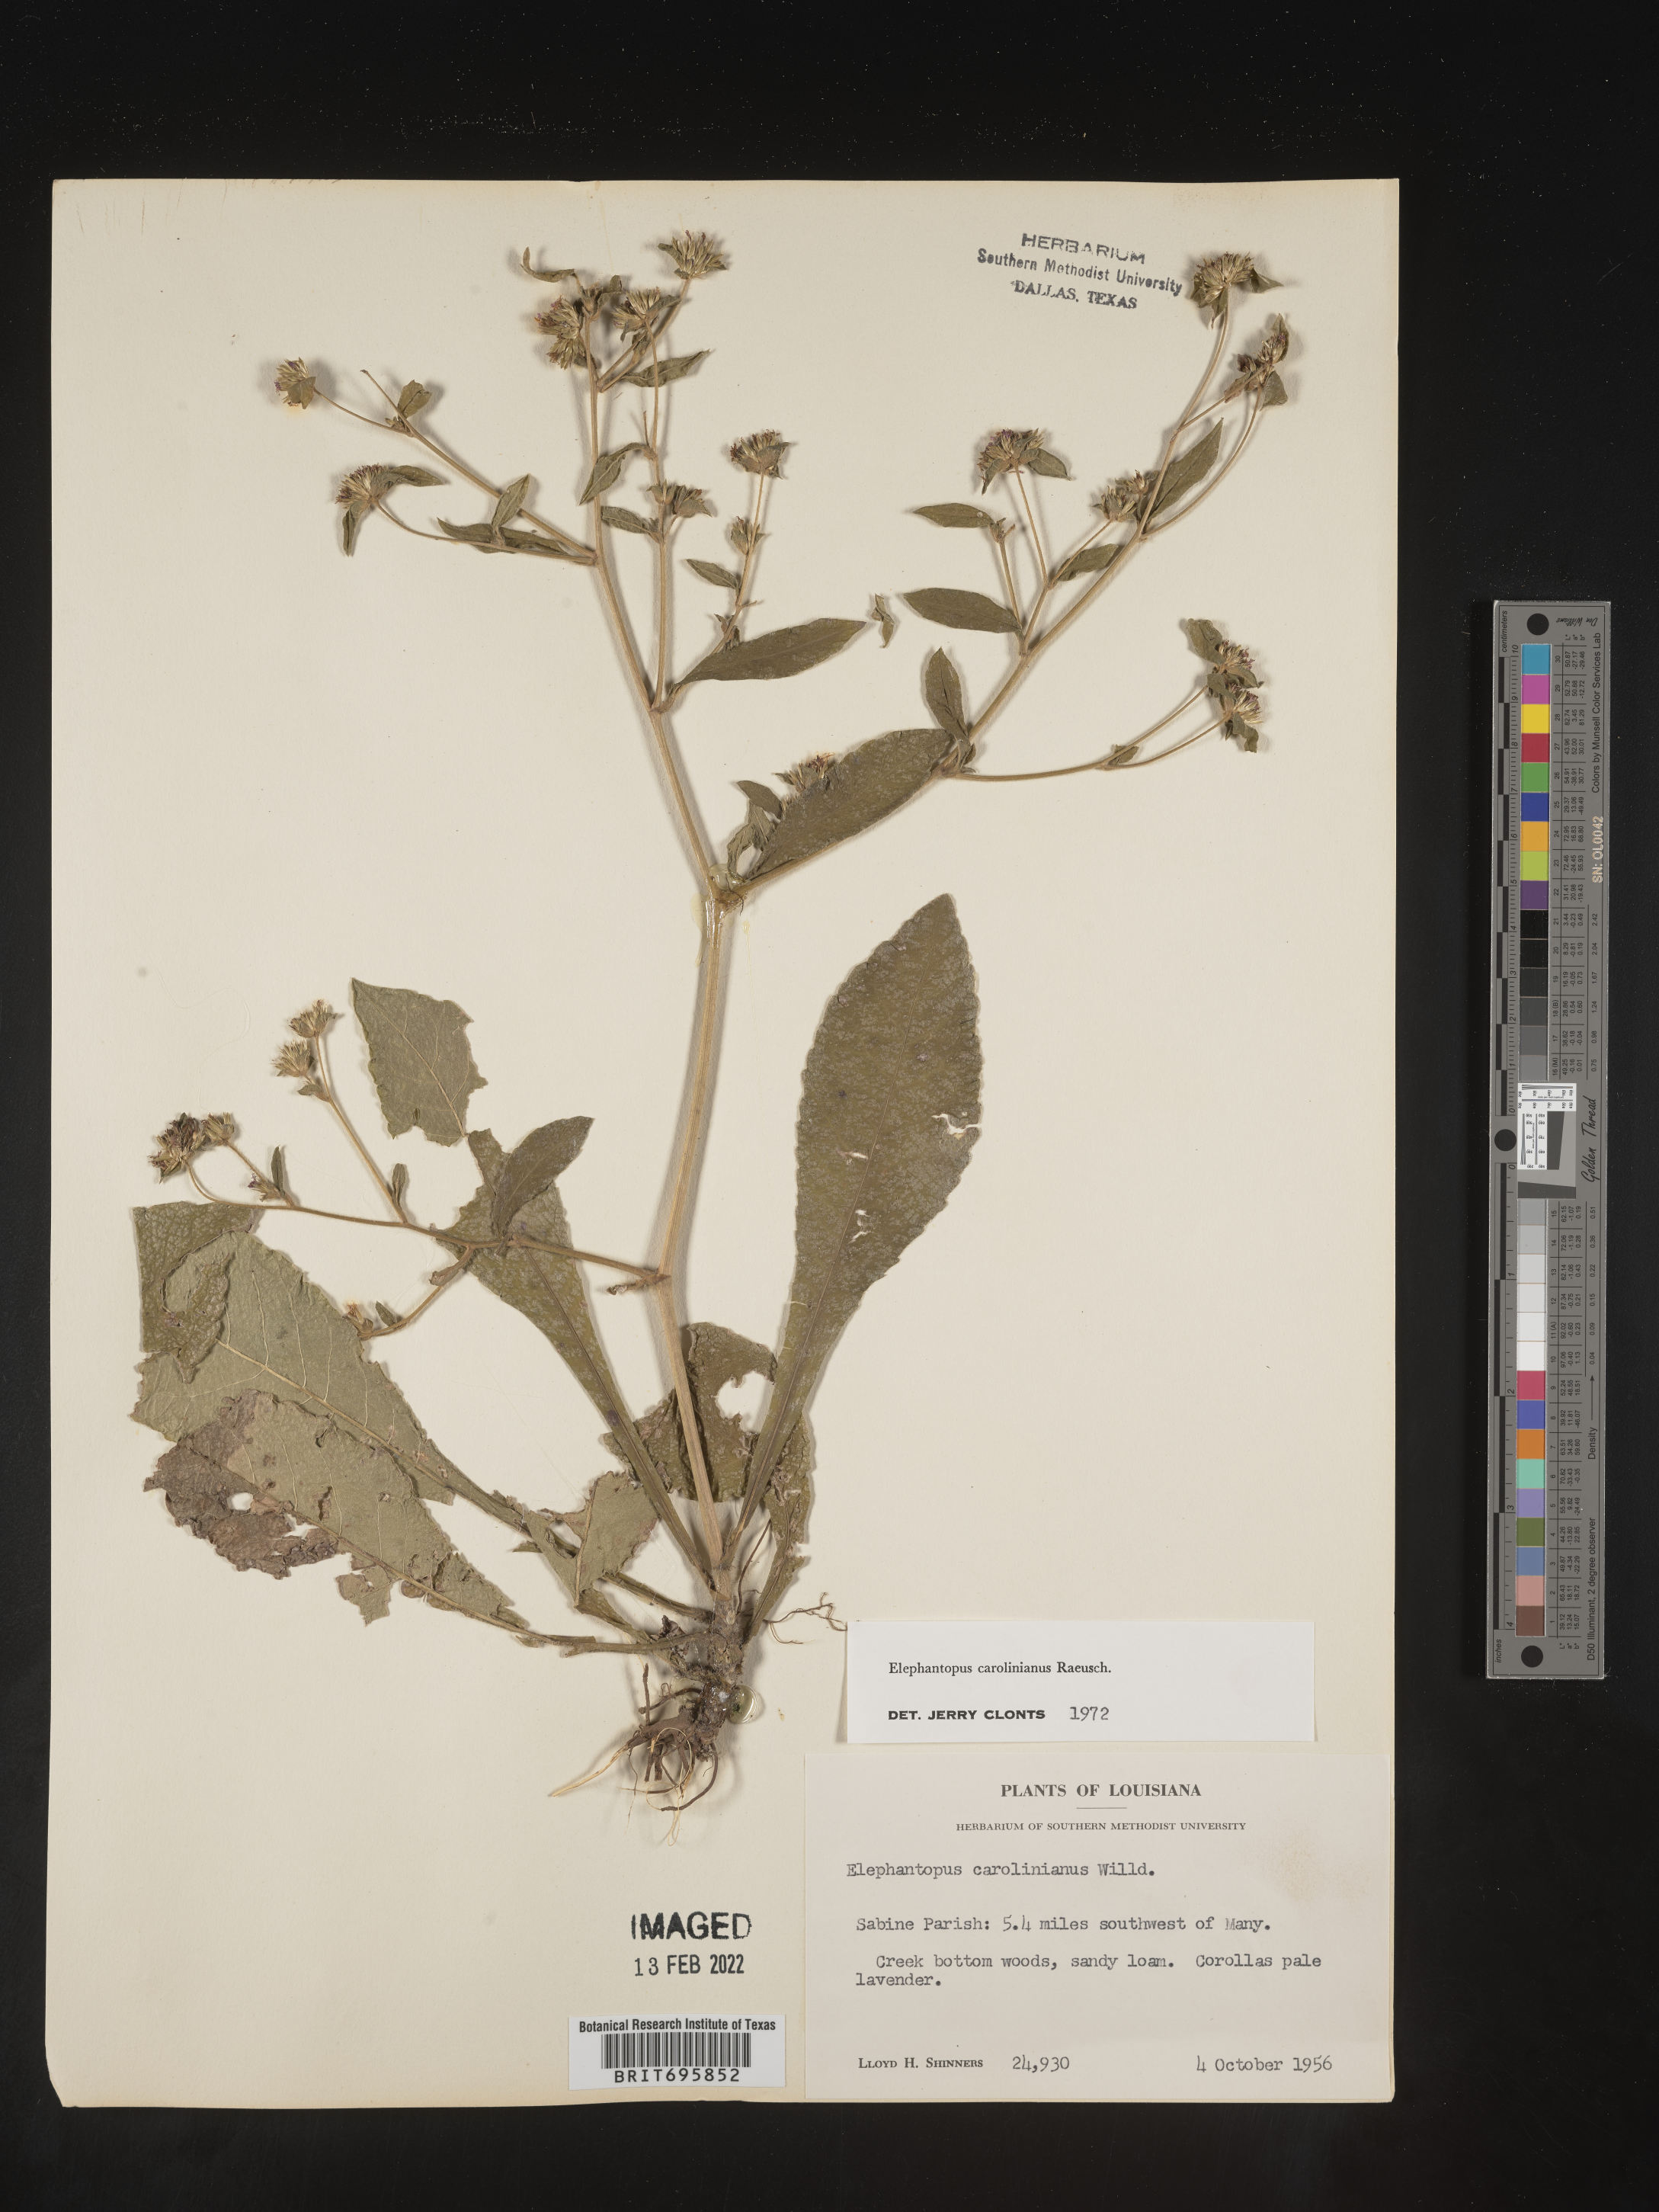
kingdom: Plantae
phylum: Tracheophyta
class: Magnoliopsida
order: Asterales
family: Asteraceae
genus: Elephantopus
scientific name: Elephantopus carolinianus
